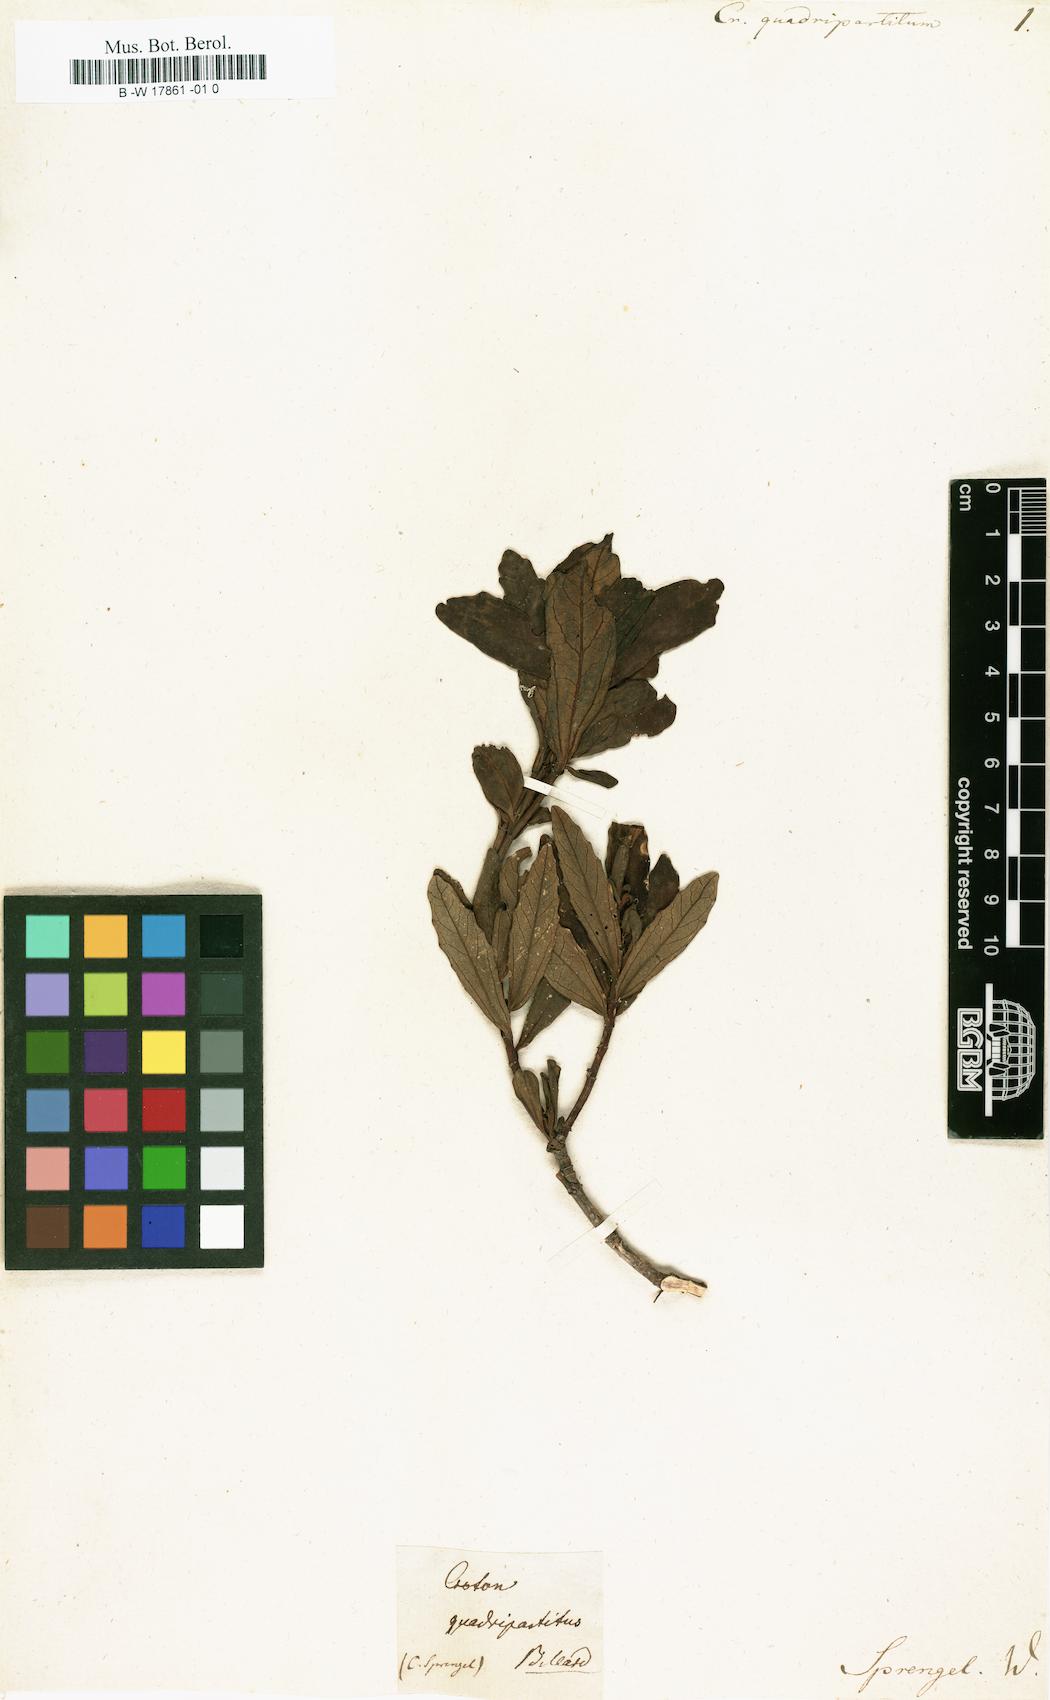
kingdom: Plantae
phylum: Tracheophyta
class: Magnoliopsida
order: Malpighiales
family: Euphorbiaceae
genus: Adriana
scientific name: Adriana quadripartita
